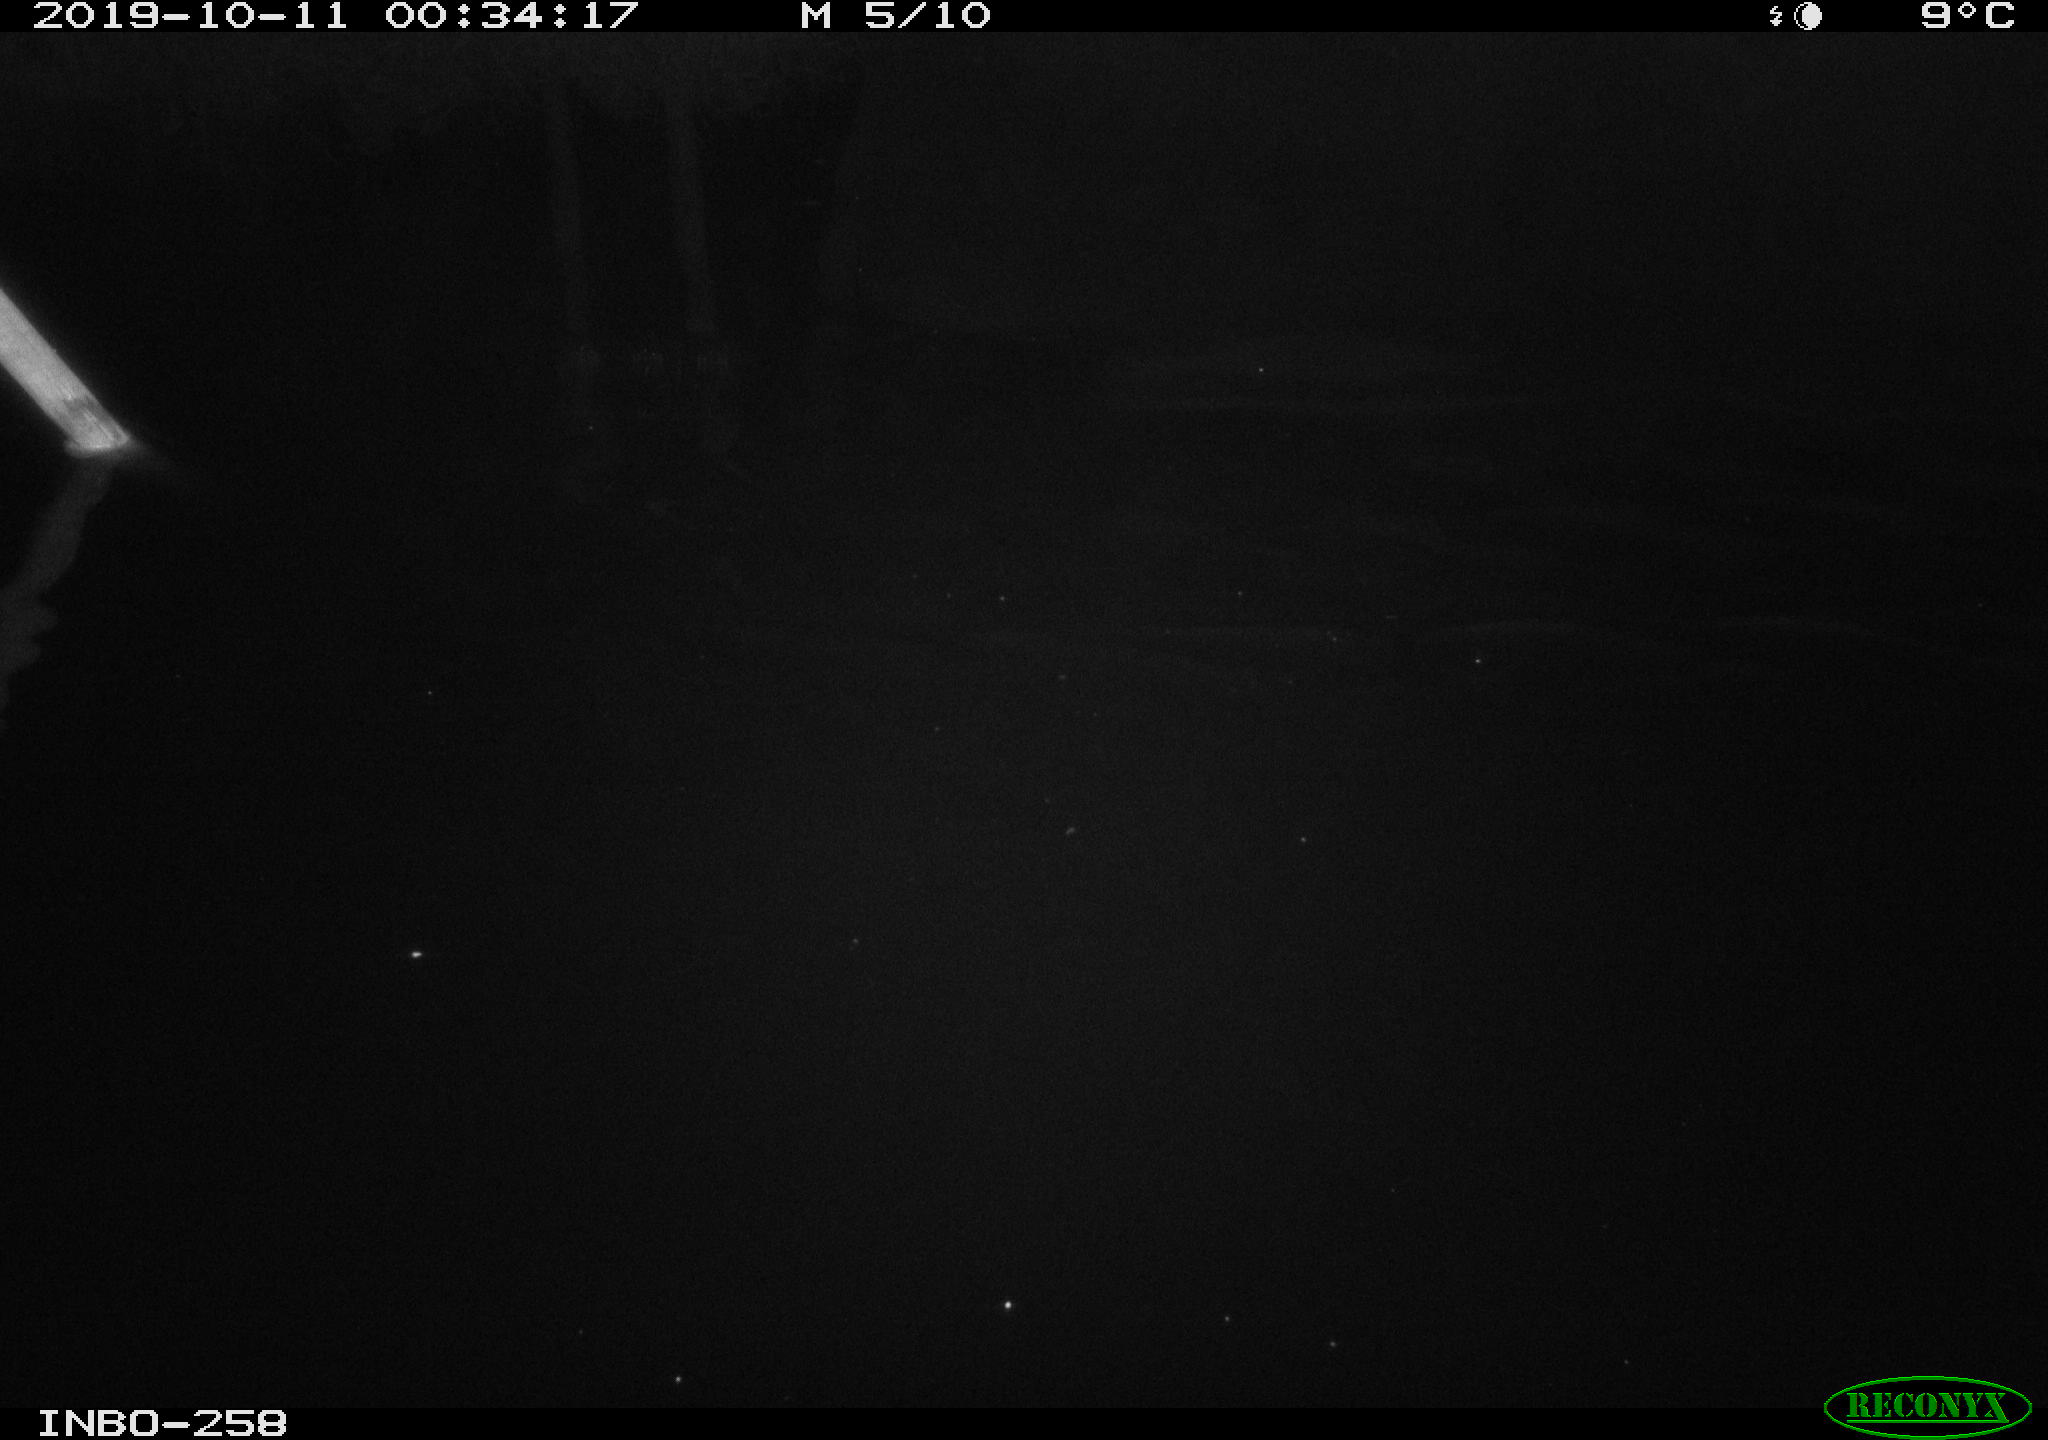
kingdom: Animalia
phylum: Chordata
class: Aves
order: Anseriformes
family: Anatidae
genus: Anas
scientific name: Anas platyrhynchos
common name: Mallard
